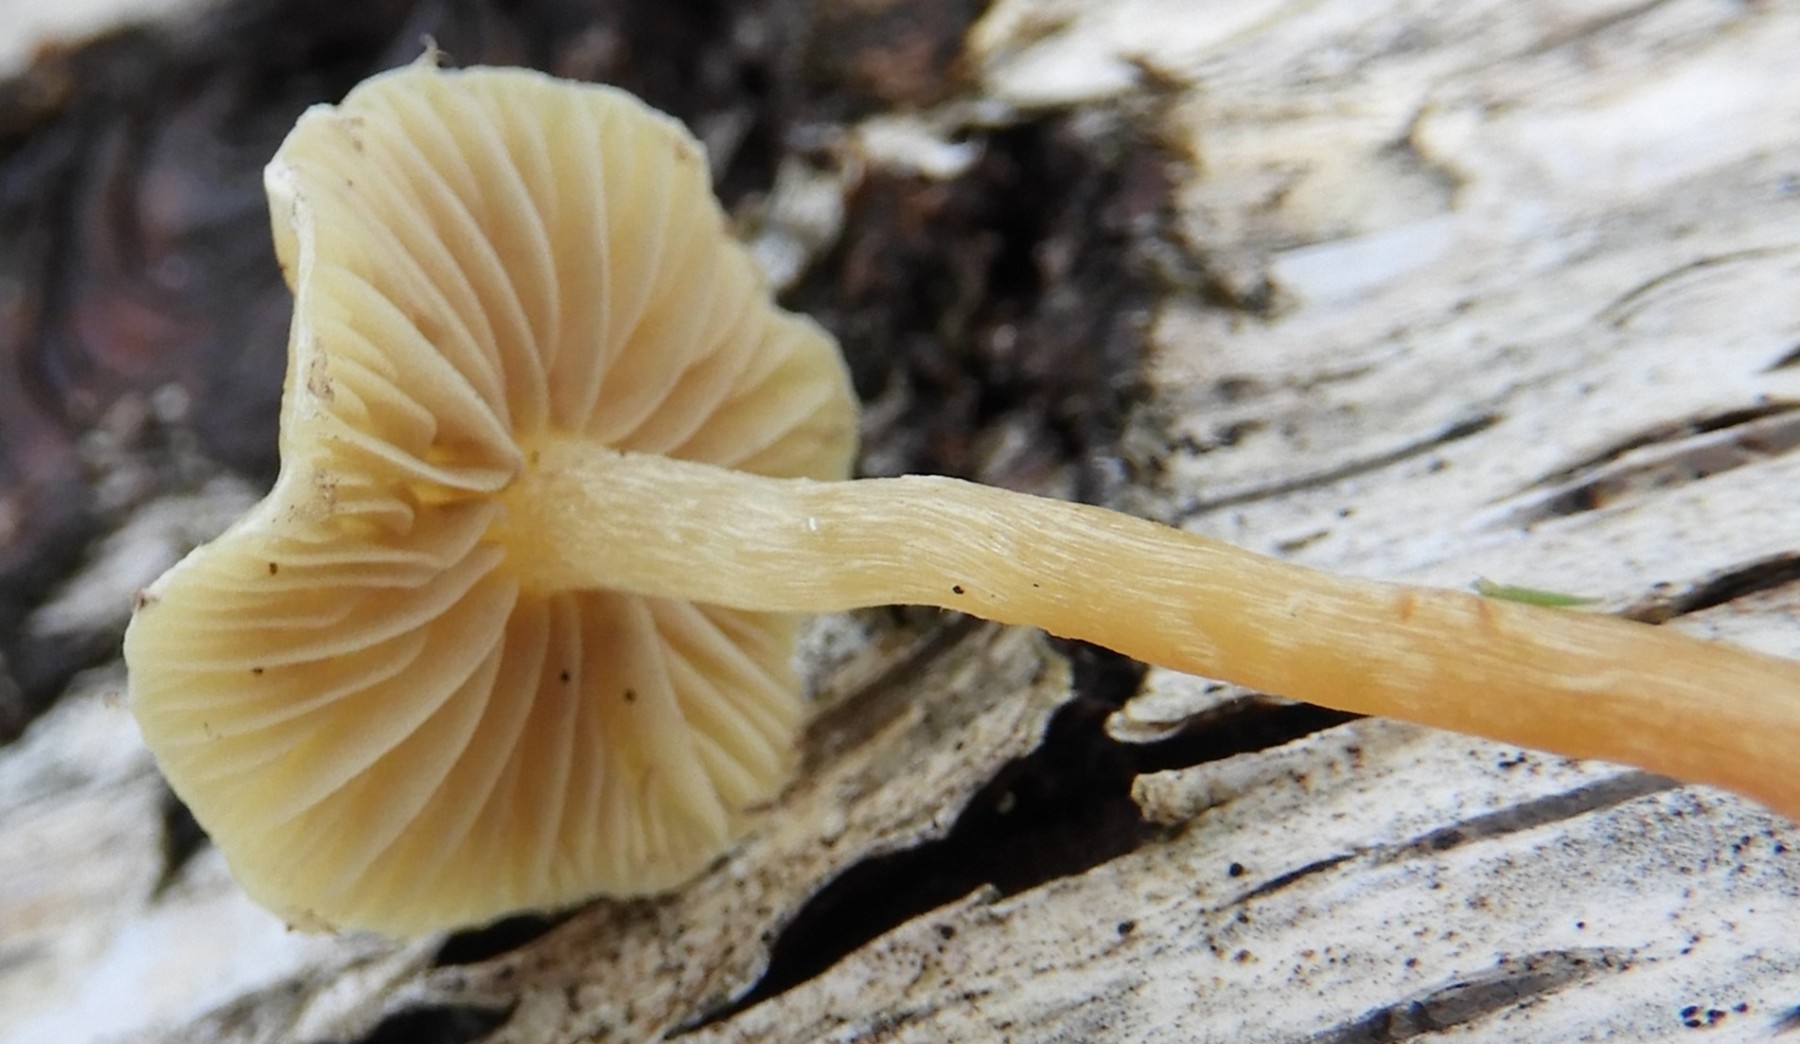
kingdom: Fungi
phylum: Basidiomycota
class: Agaricomycetes
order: Agaricales
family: Strophariaceae
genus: Hypholoma
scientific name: Hypholoma elongatum
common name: slank svovlhat
